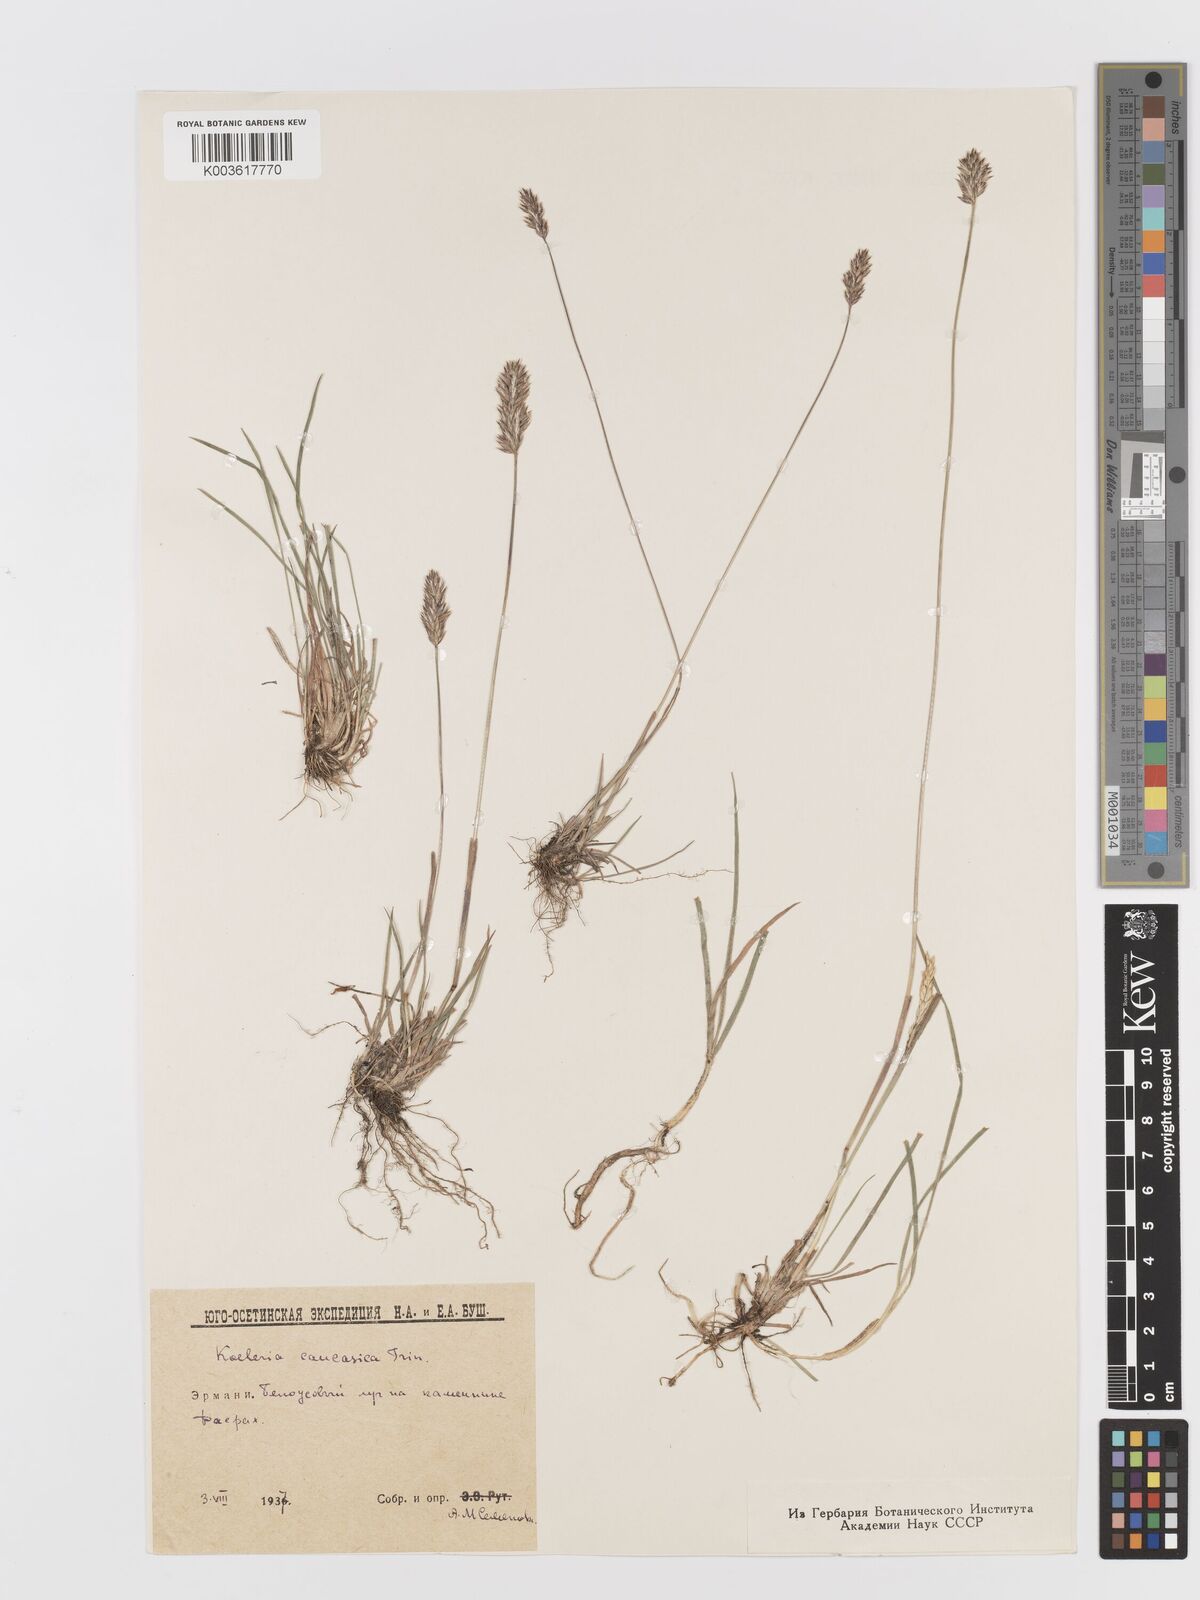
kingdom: Plantae
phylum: Tracheophyta
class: Liliopsida
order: Poales
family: Poaceae
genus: Koeleria
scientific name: Koeleria eriostachya
